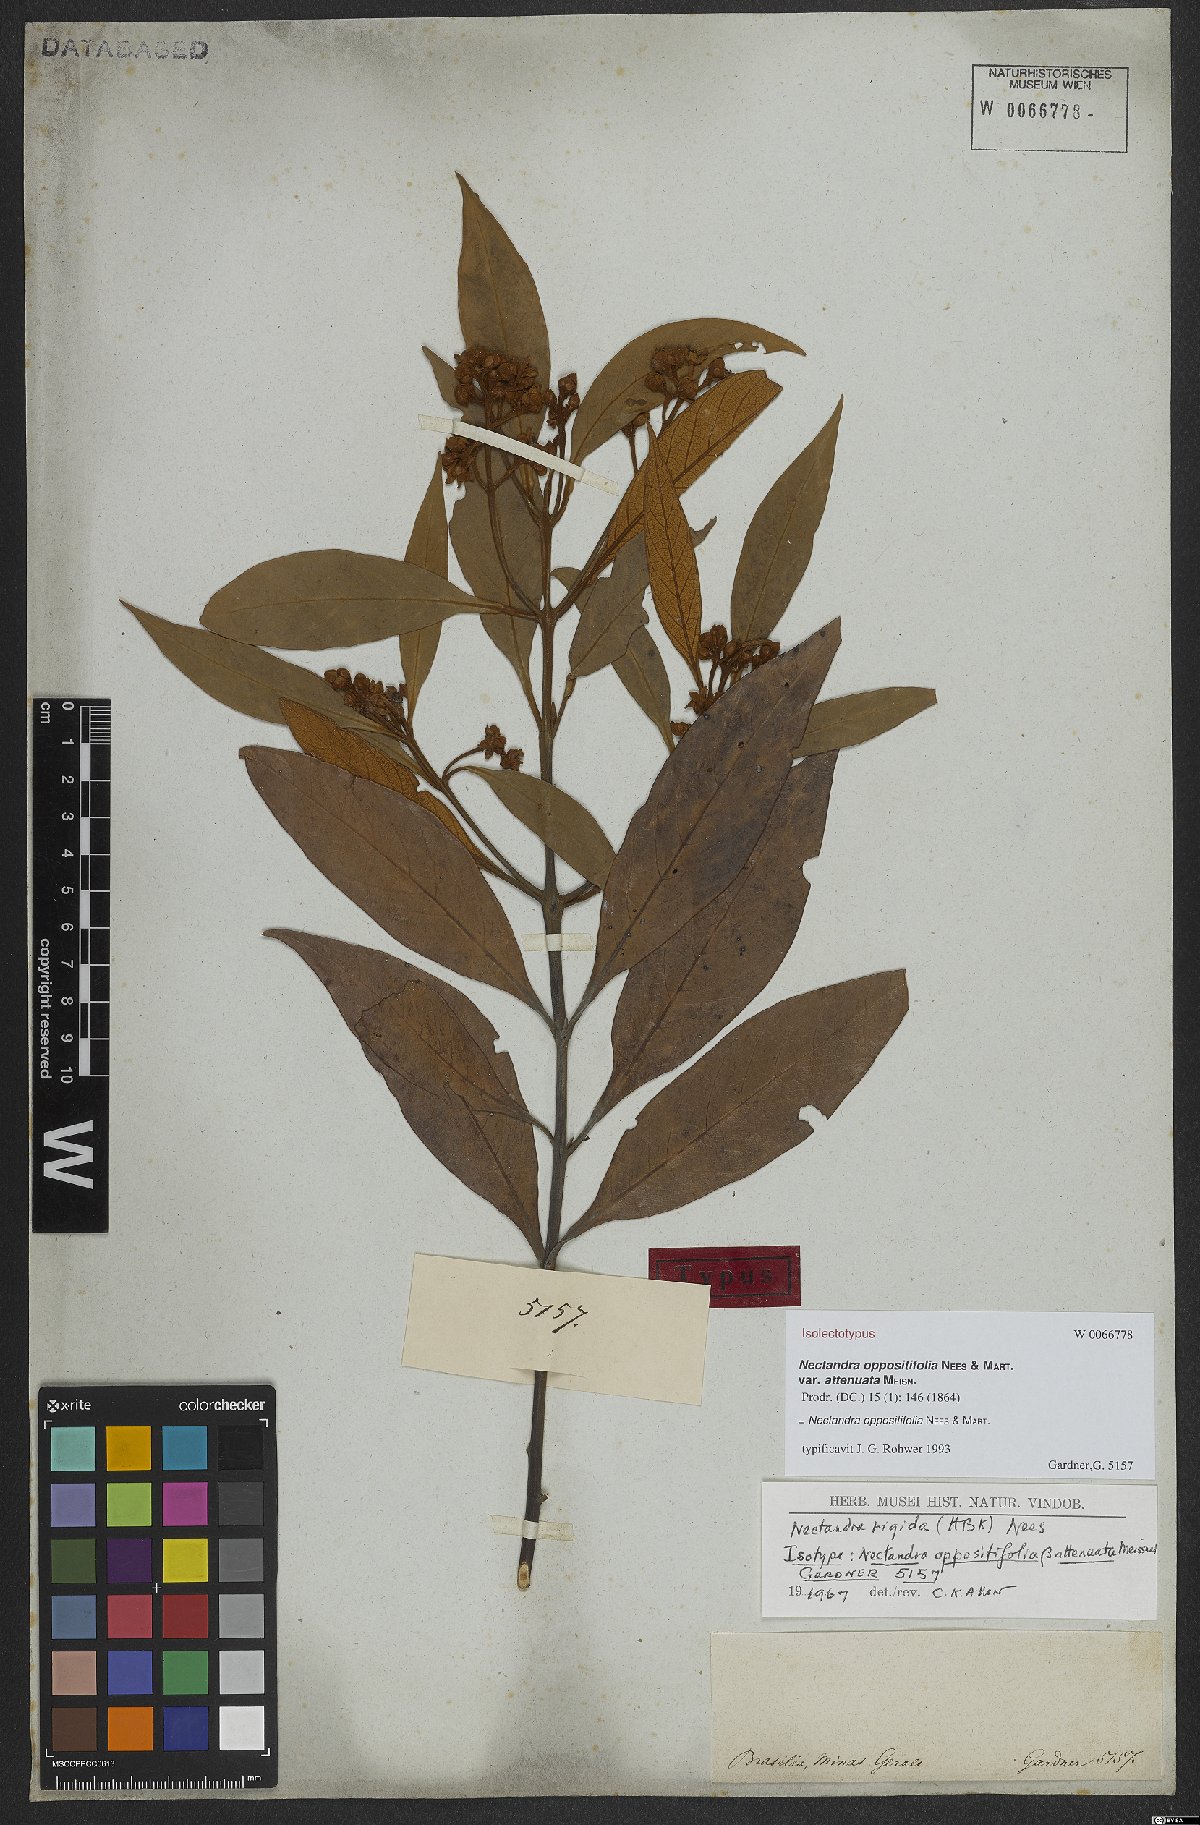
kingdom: Plantae
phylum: Tracheophyta
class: Magnoliopsida
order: Laurales
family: Lauraceae
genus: Nectandra
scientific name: Nectandra oppositifolia
